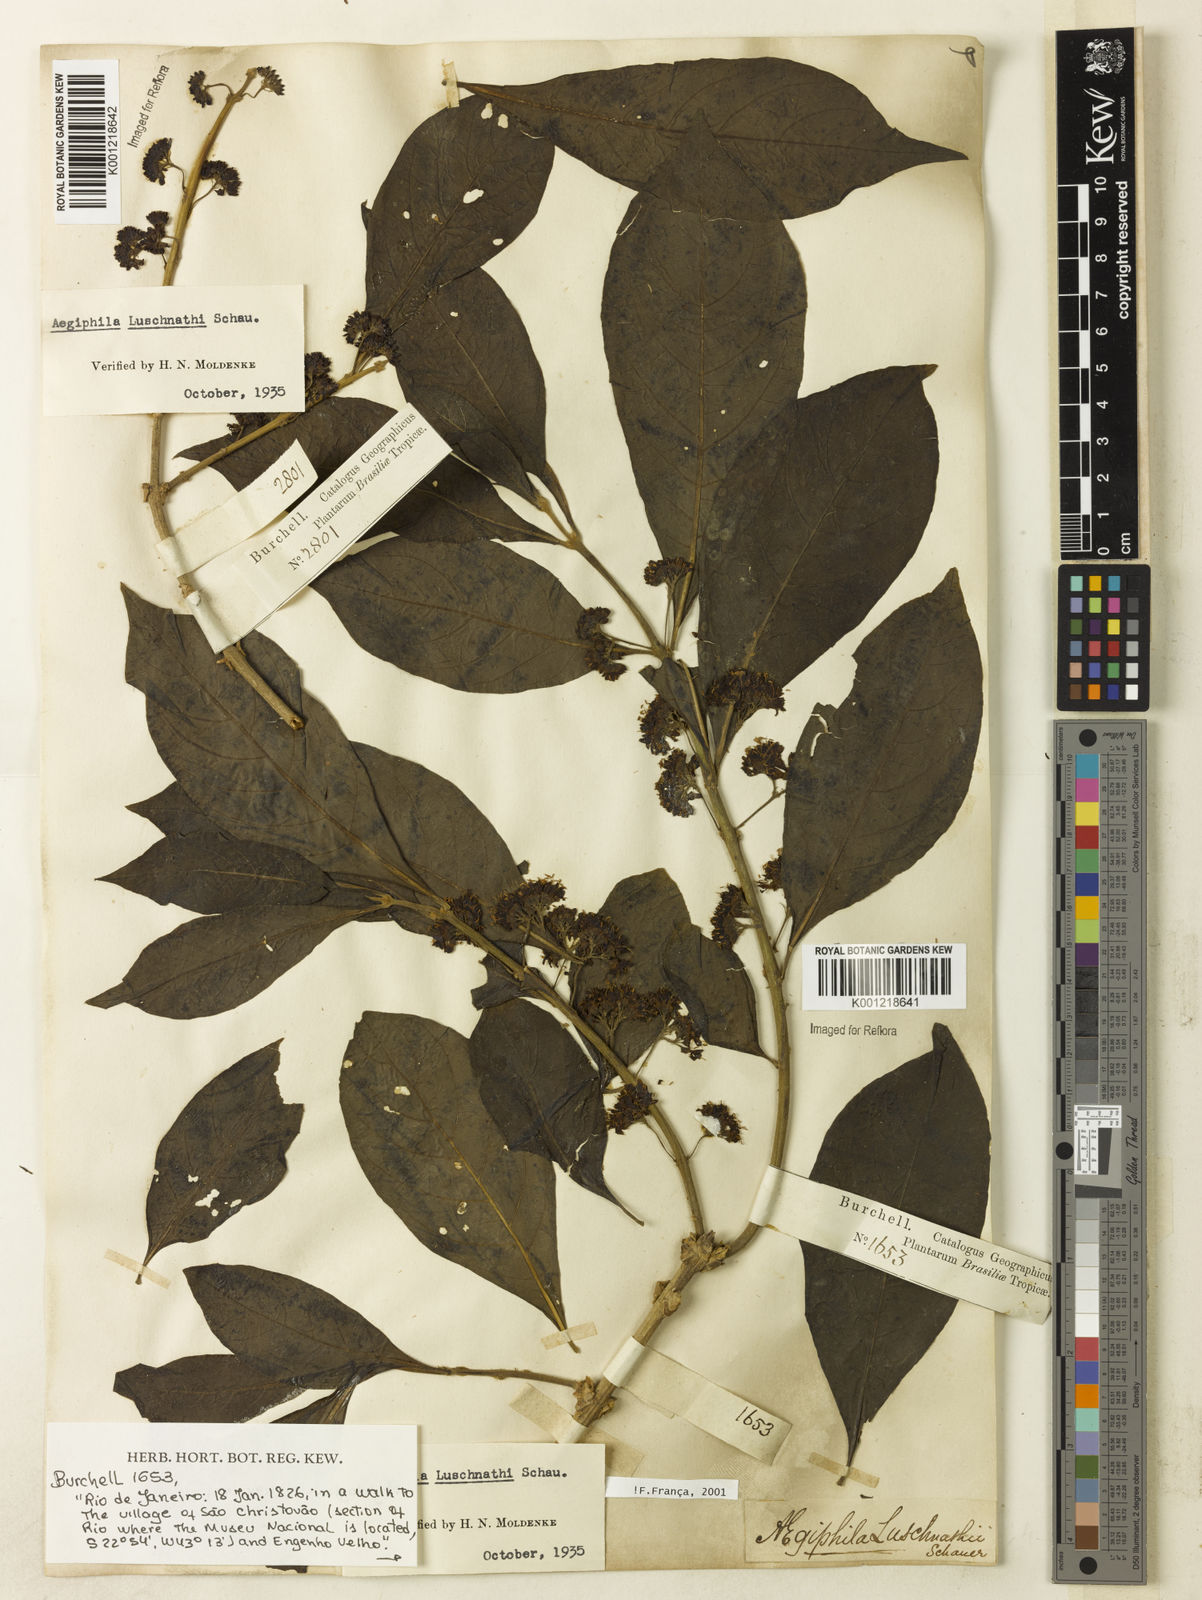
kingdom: Plantae
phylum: Tracheophyta
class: Magnoliopsida
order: Lamiales
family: Lamiaceae
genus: Aegiphila
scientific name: Aegiphila
